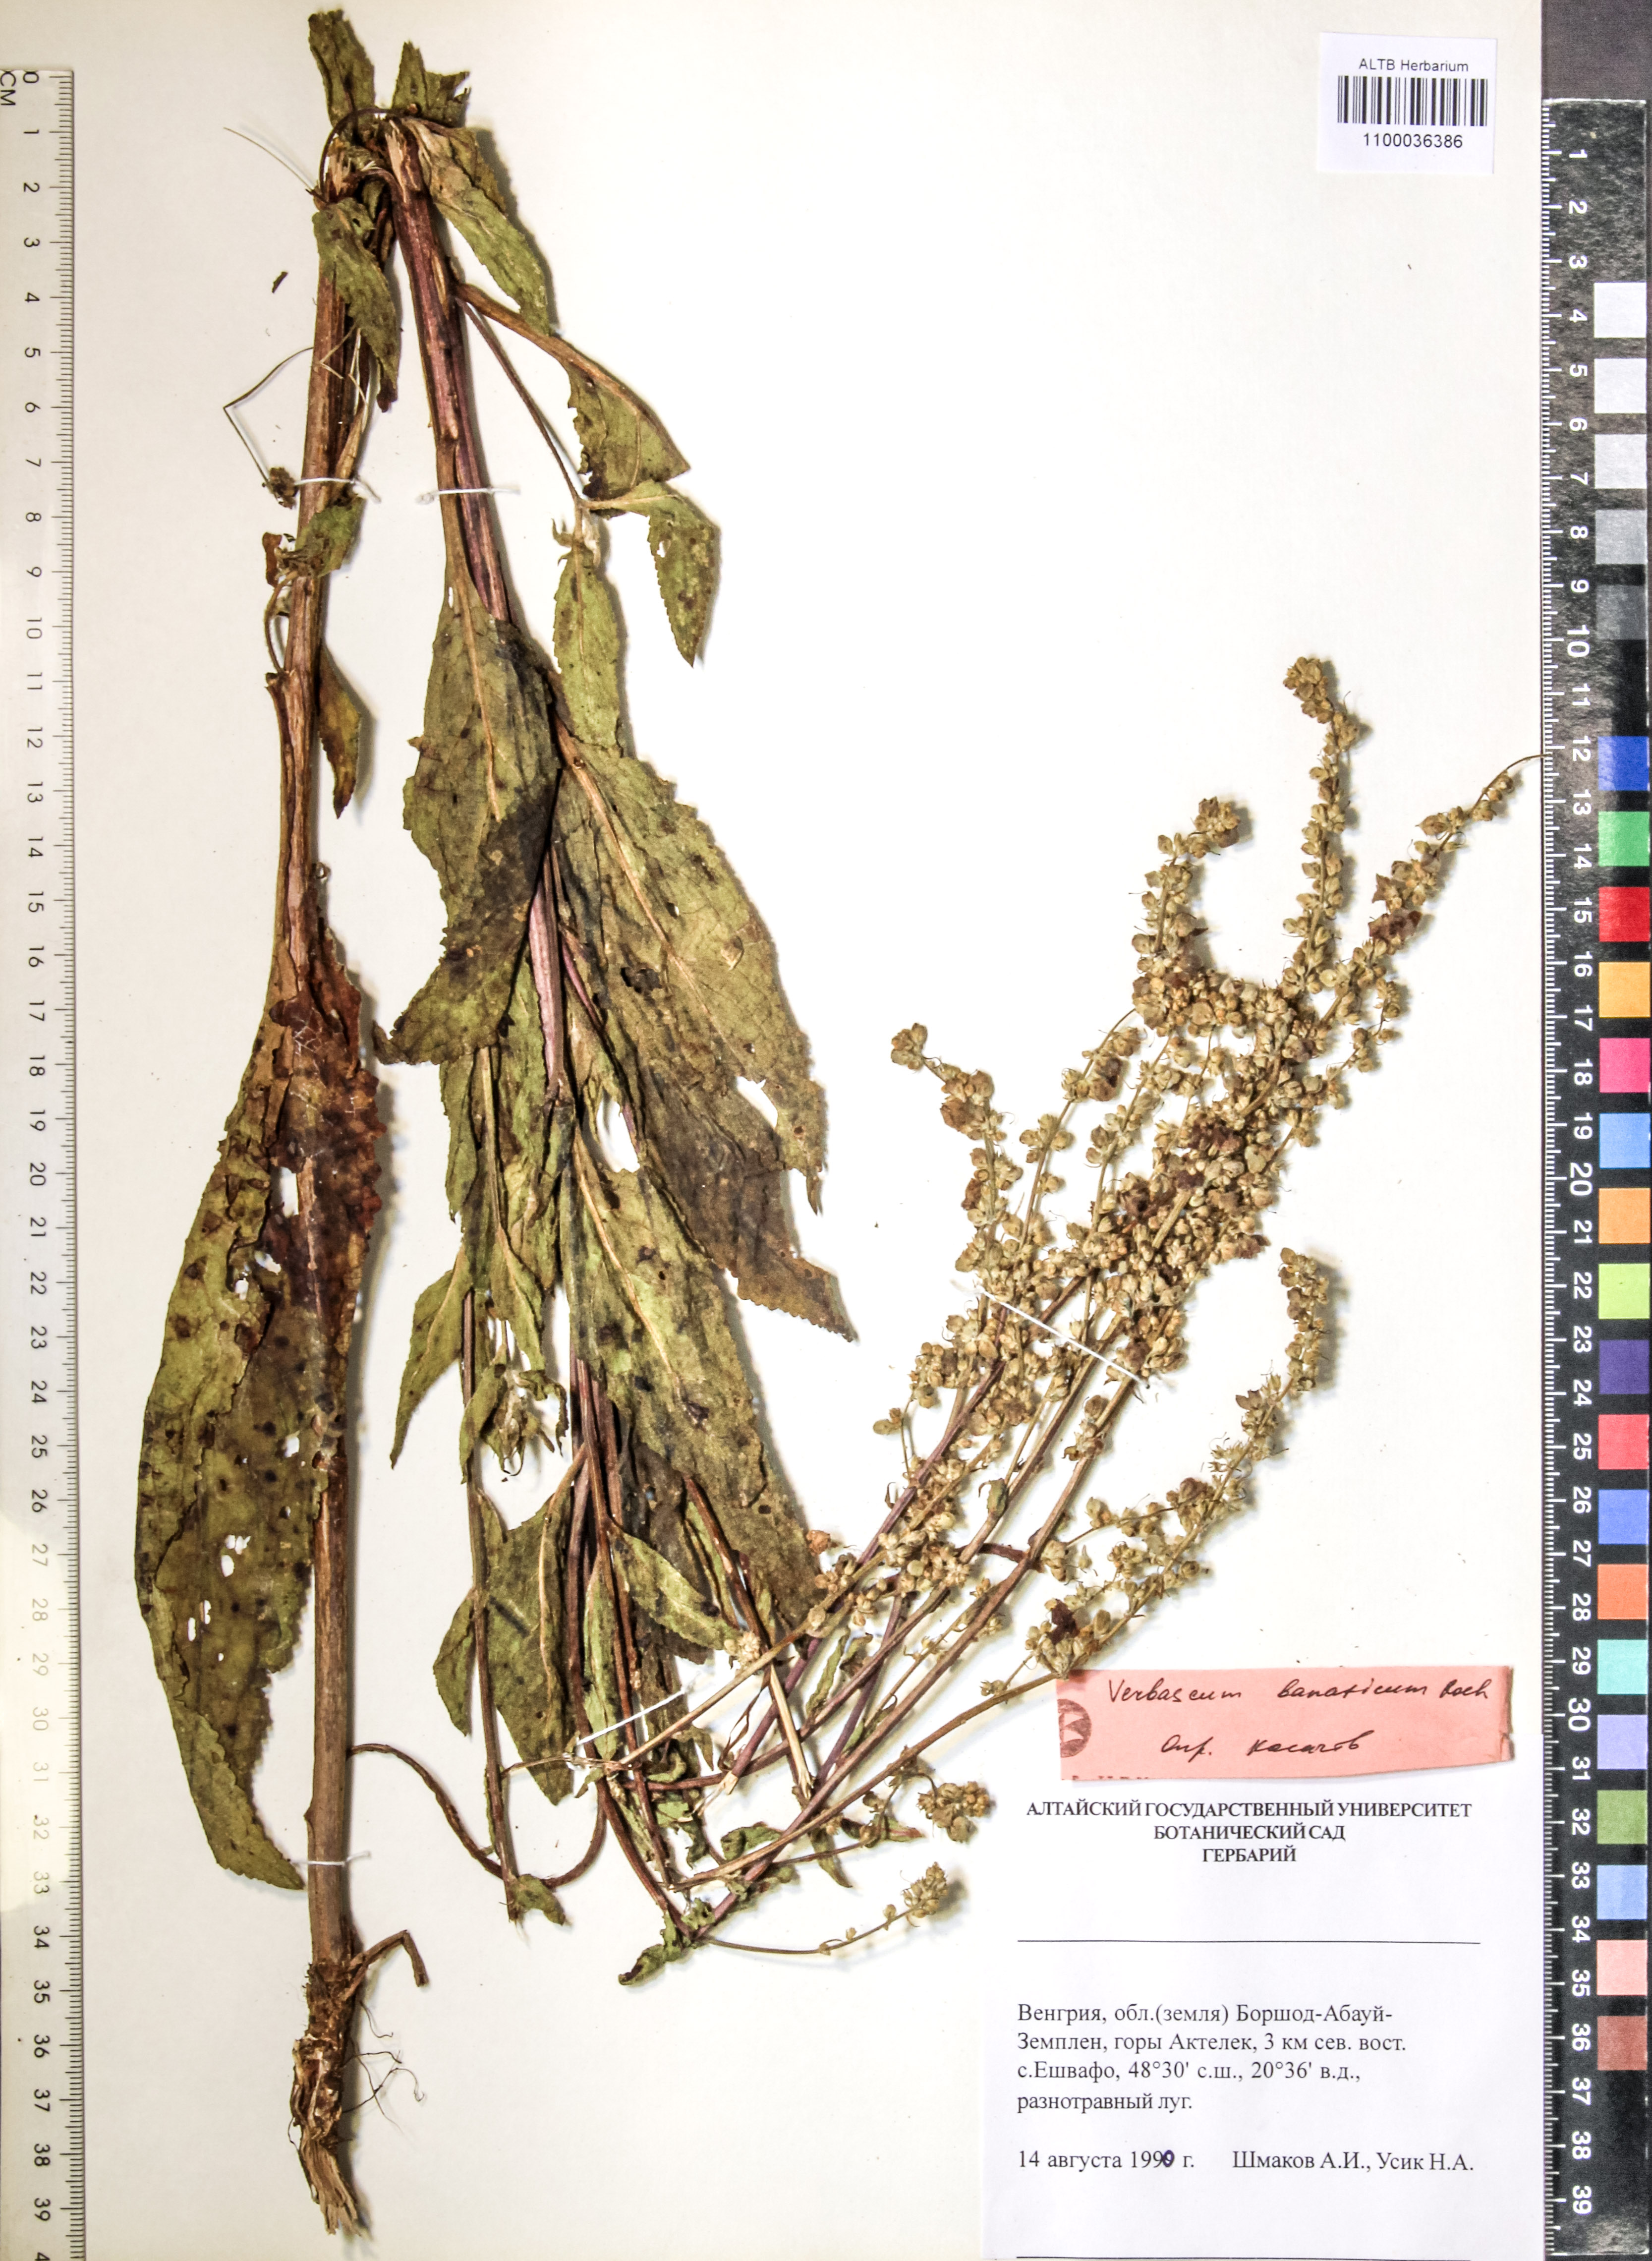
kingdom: Plantae
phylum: Tracheophyta
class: Magnoliopsida
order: Lamiales
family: Scrophulariaceae
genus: Verbascum
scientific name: Verbascum banaticum
